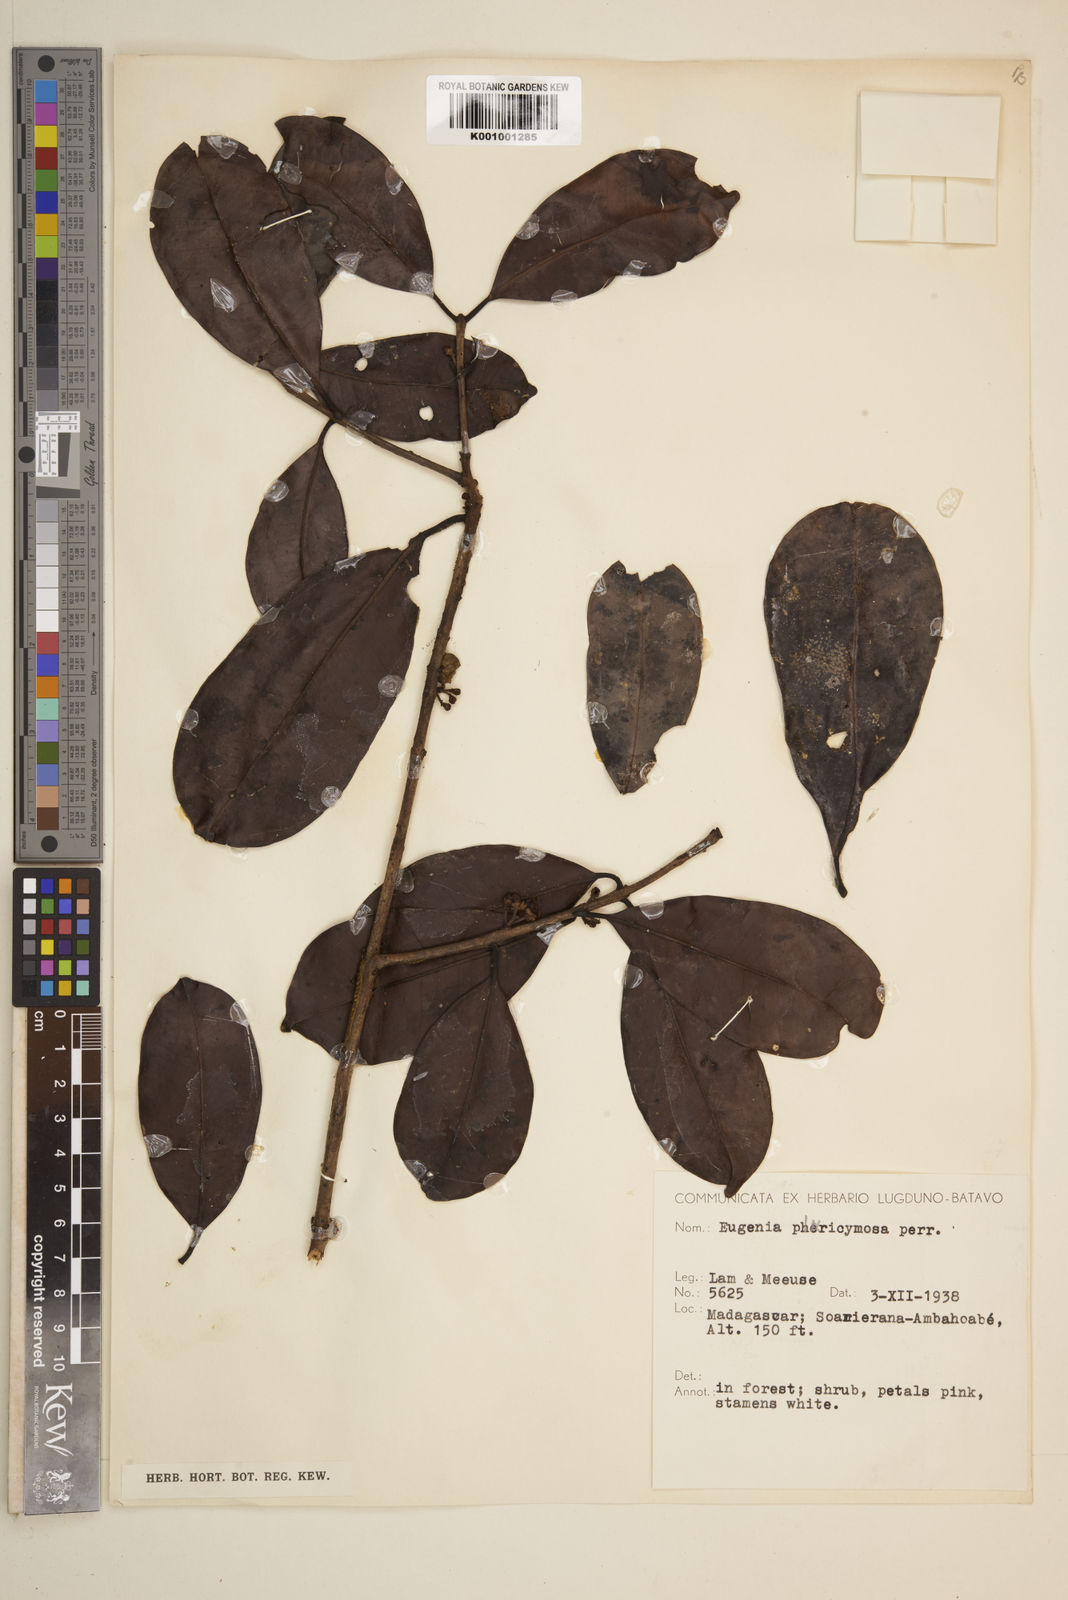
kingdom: Plantae
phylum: Tracheophyta
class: Magnoliopsida
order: Myrtales
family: Myrtaceae
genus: Eugenia
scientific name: Eugenia pluricymosa
